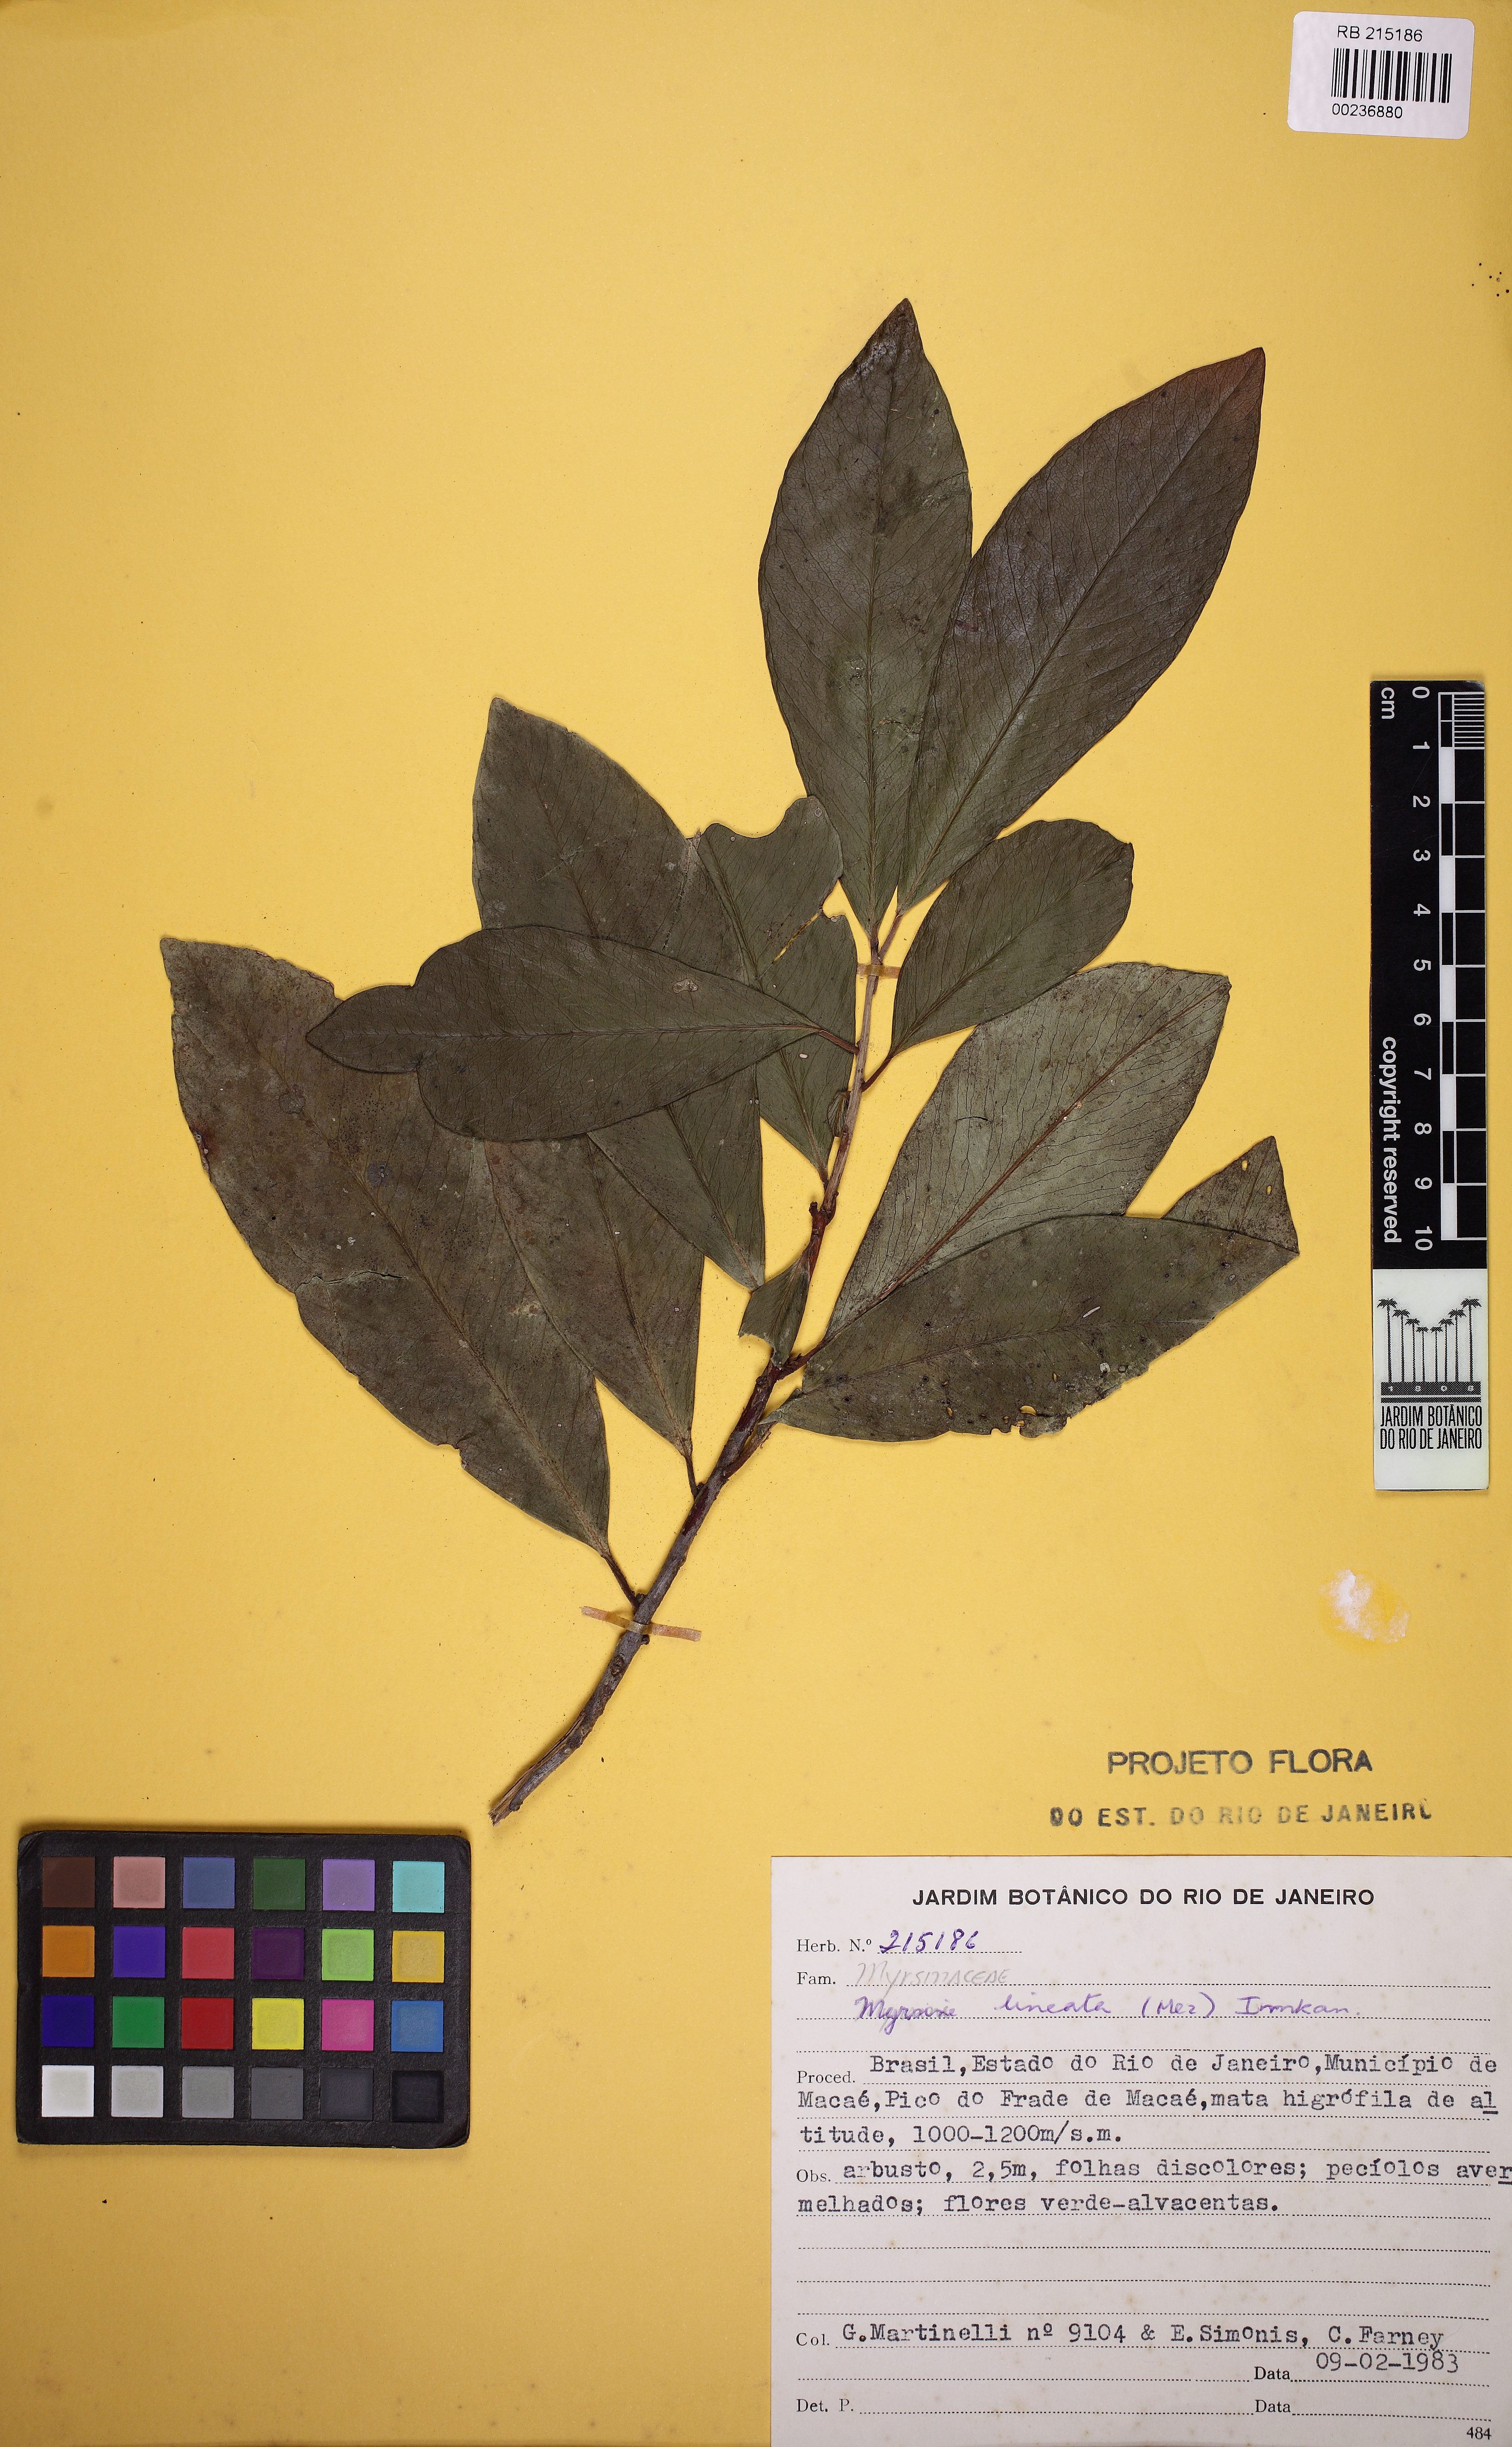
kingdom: Plantae
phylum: Tracheophyta
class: Magnoliopsida
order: Ericales
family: Primulaceae
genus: Myrsine
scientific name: Myrsine lineata
